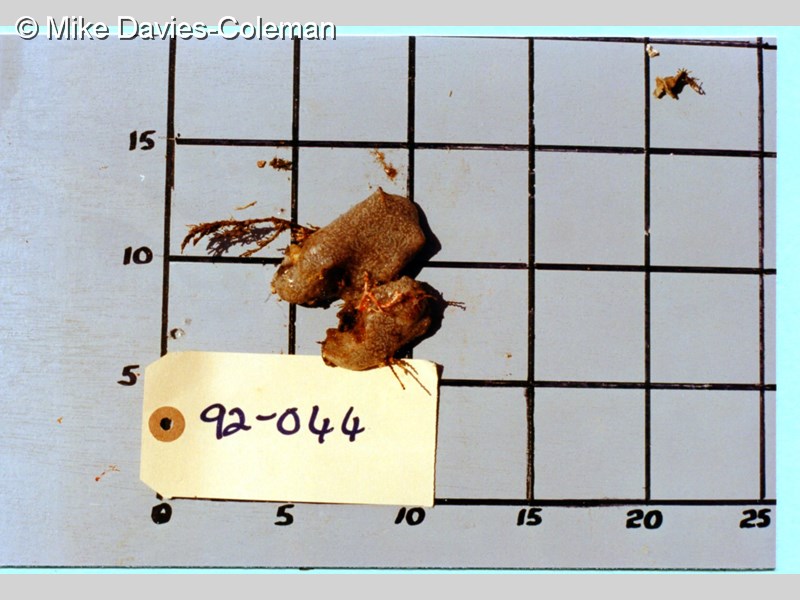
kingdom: Animalia
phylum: Chordata
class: Ascidiacea
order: Aplousobranchia
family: Polyclinidae
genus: Aplidium
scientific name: Aplidium flavolineatum
